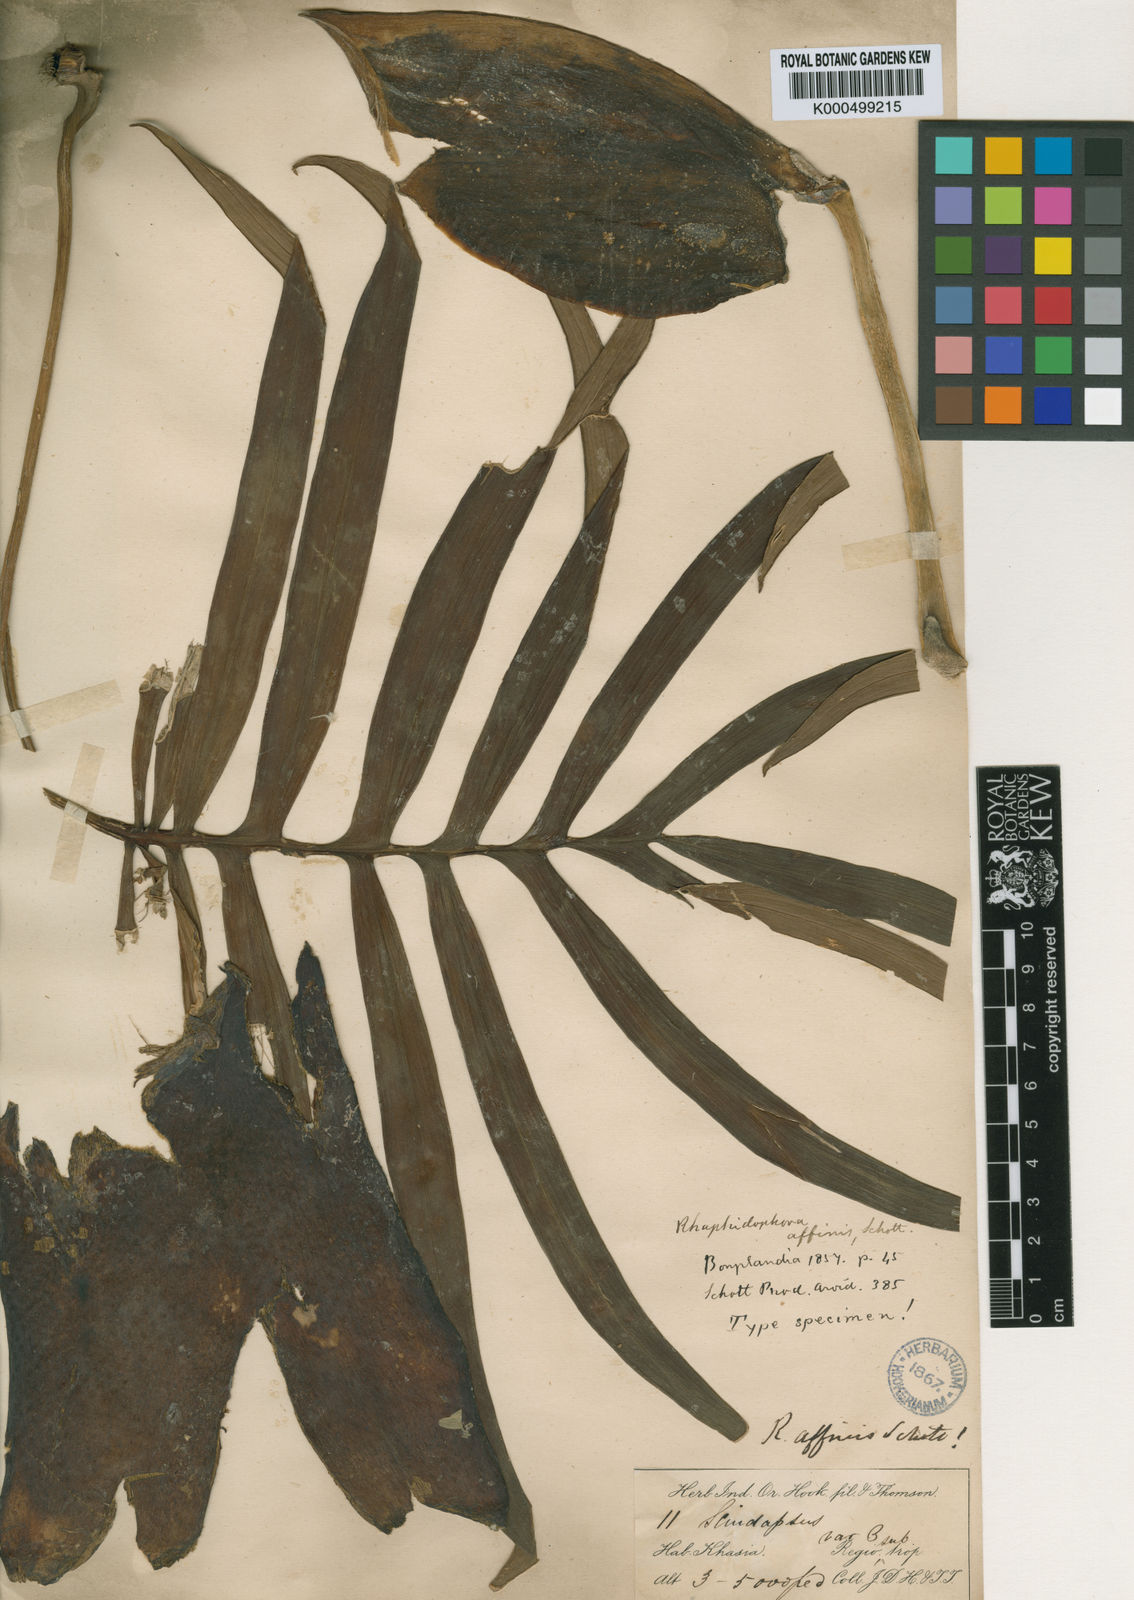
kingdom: Plantae
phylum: Tracheophyta
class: Liliopsida
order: Alismatales
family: Araceae
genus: Rhaphidophora
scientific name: Rhaphidophora decursiva
